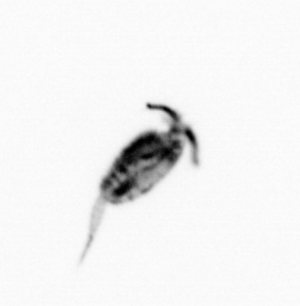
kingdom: Animalia
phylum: Arthropoda
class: Copepoda
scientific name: Copepoda
